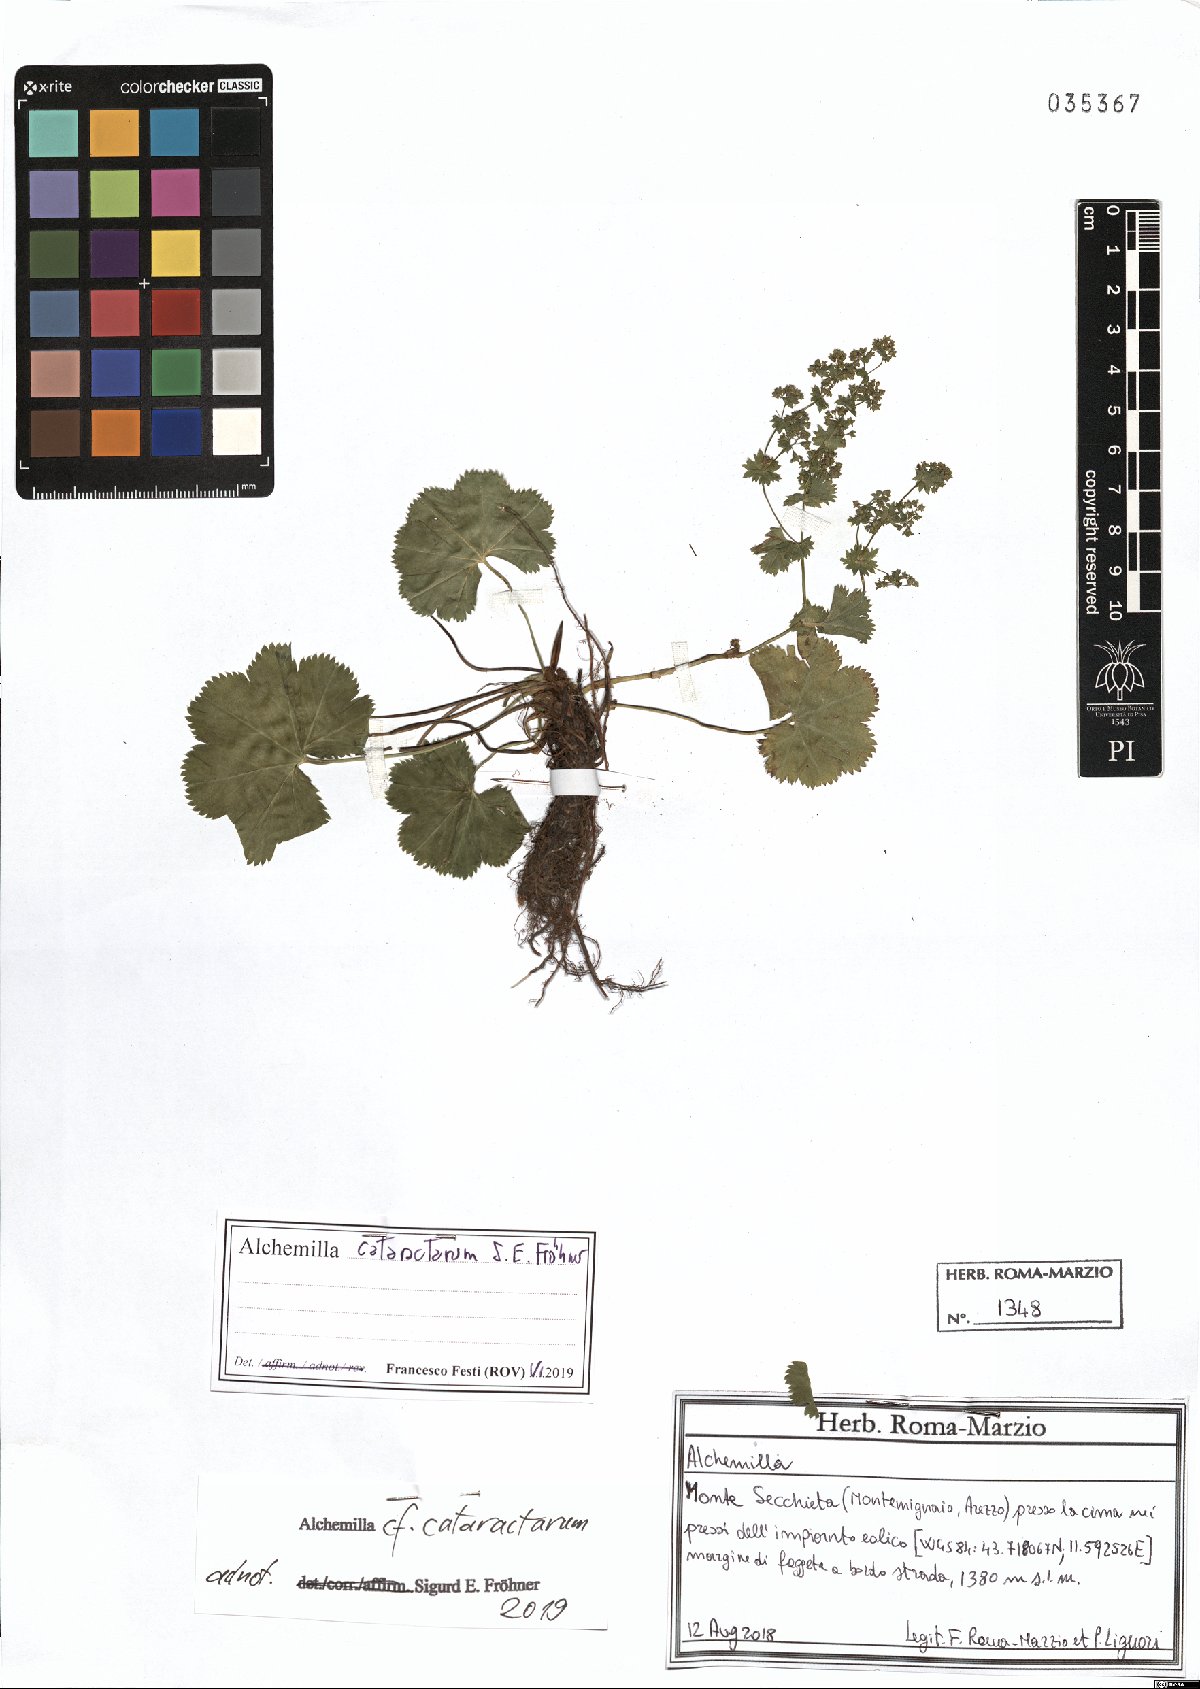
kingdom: Plantae
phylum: Tracheophyta
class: Magnoliopsida
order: Rosales
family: Rosaceae
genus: Alchemilla
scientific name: Alchemilla cataractarum
